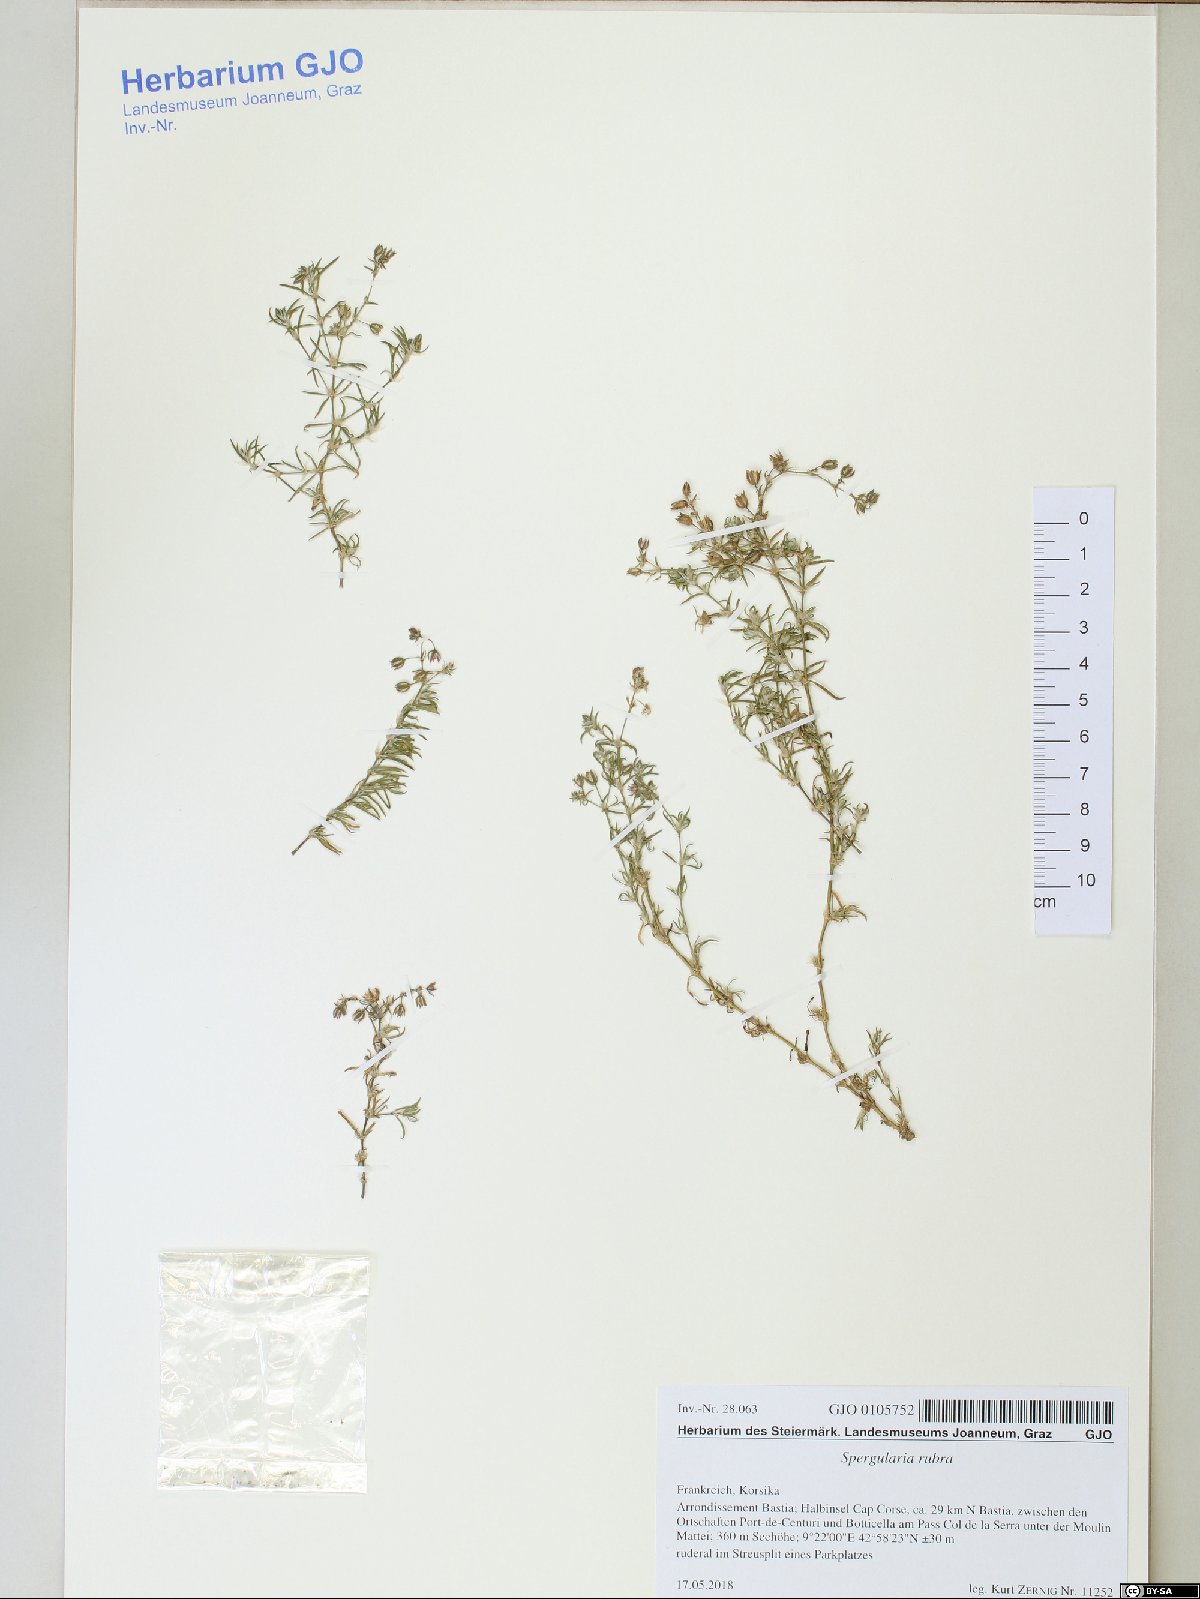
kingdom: Plantae
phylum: Tracheophyta
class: Magnoliopsida
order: Caryophyllales
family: Caryophyllaceae
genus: Spergularia
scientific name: Spergularia rubra
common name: Red sand-spurrey
